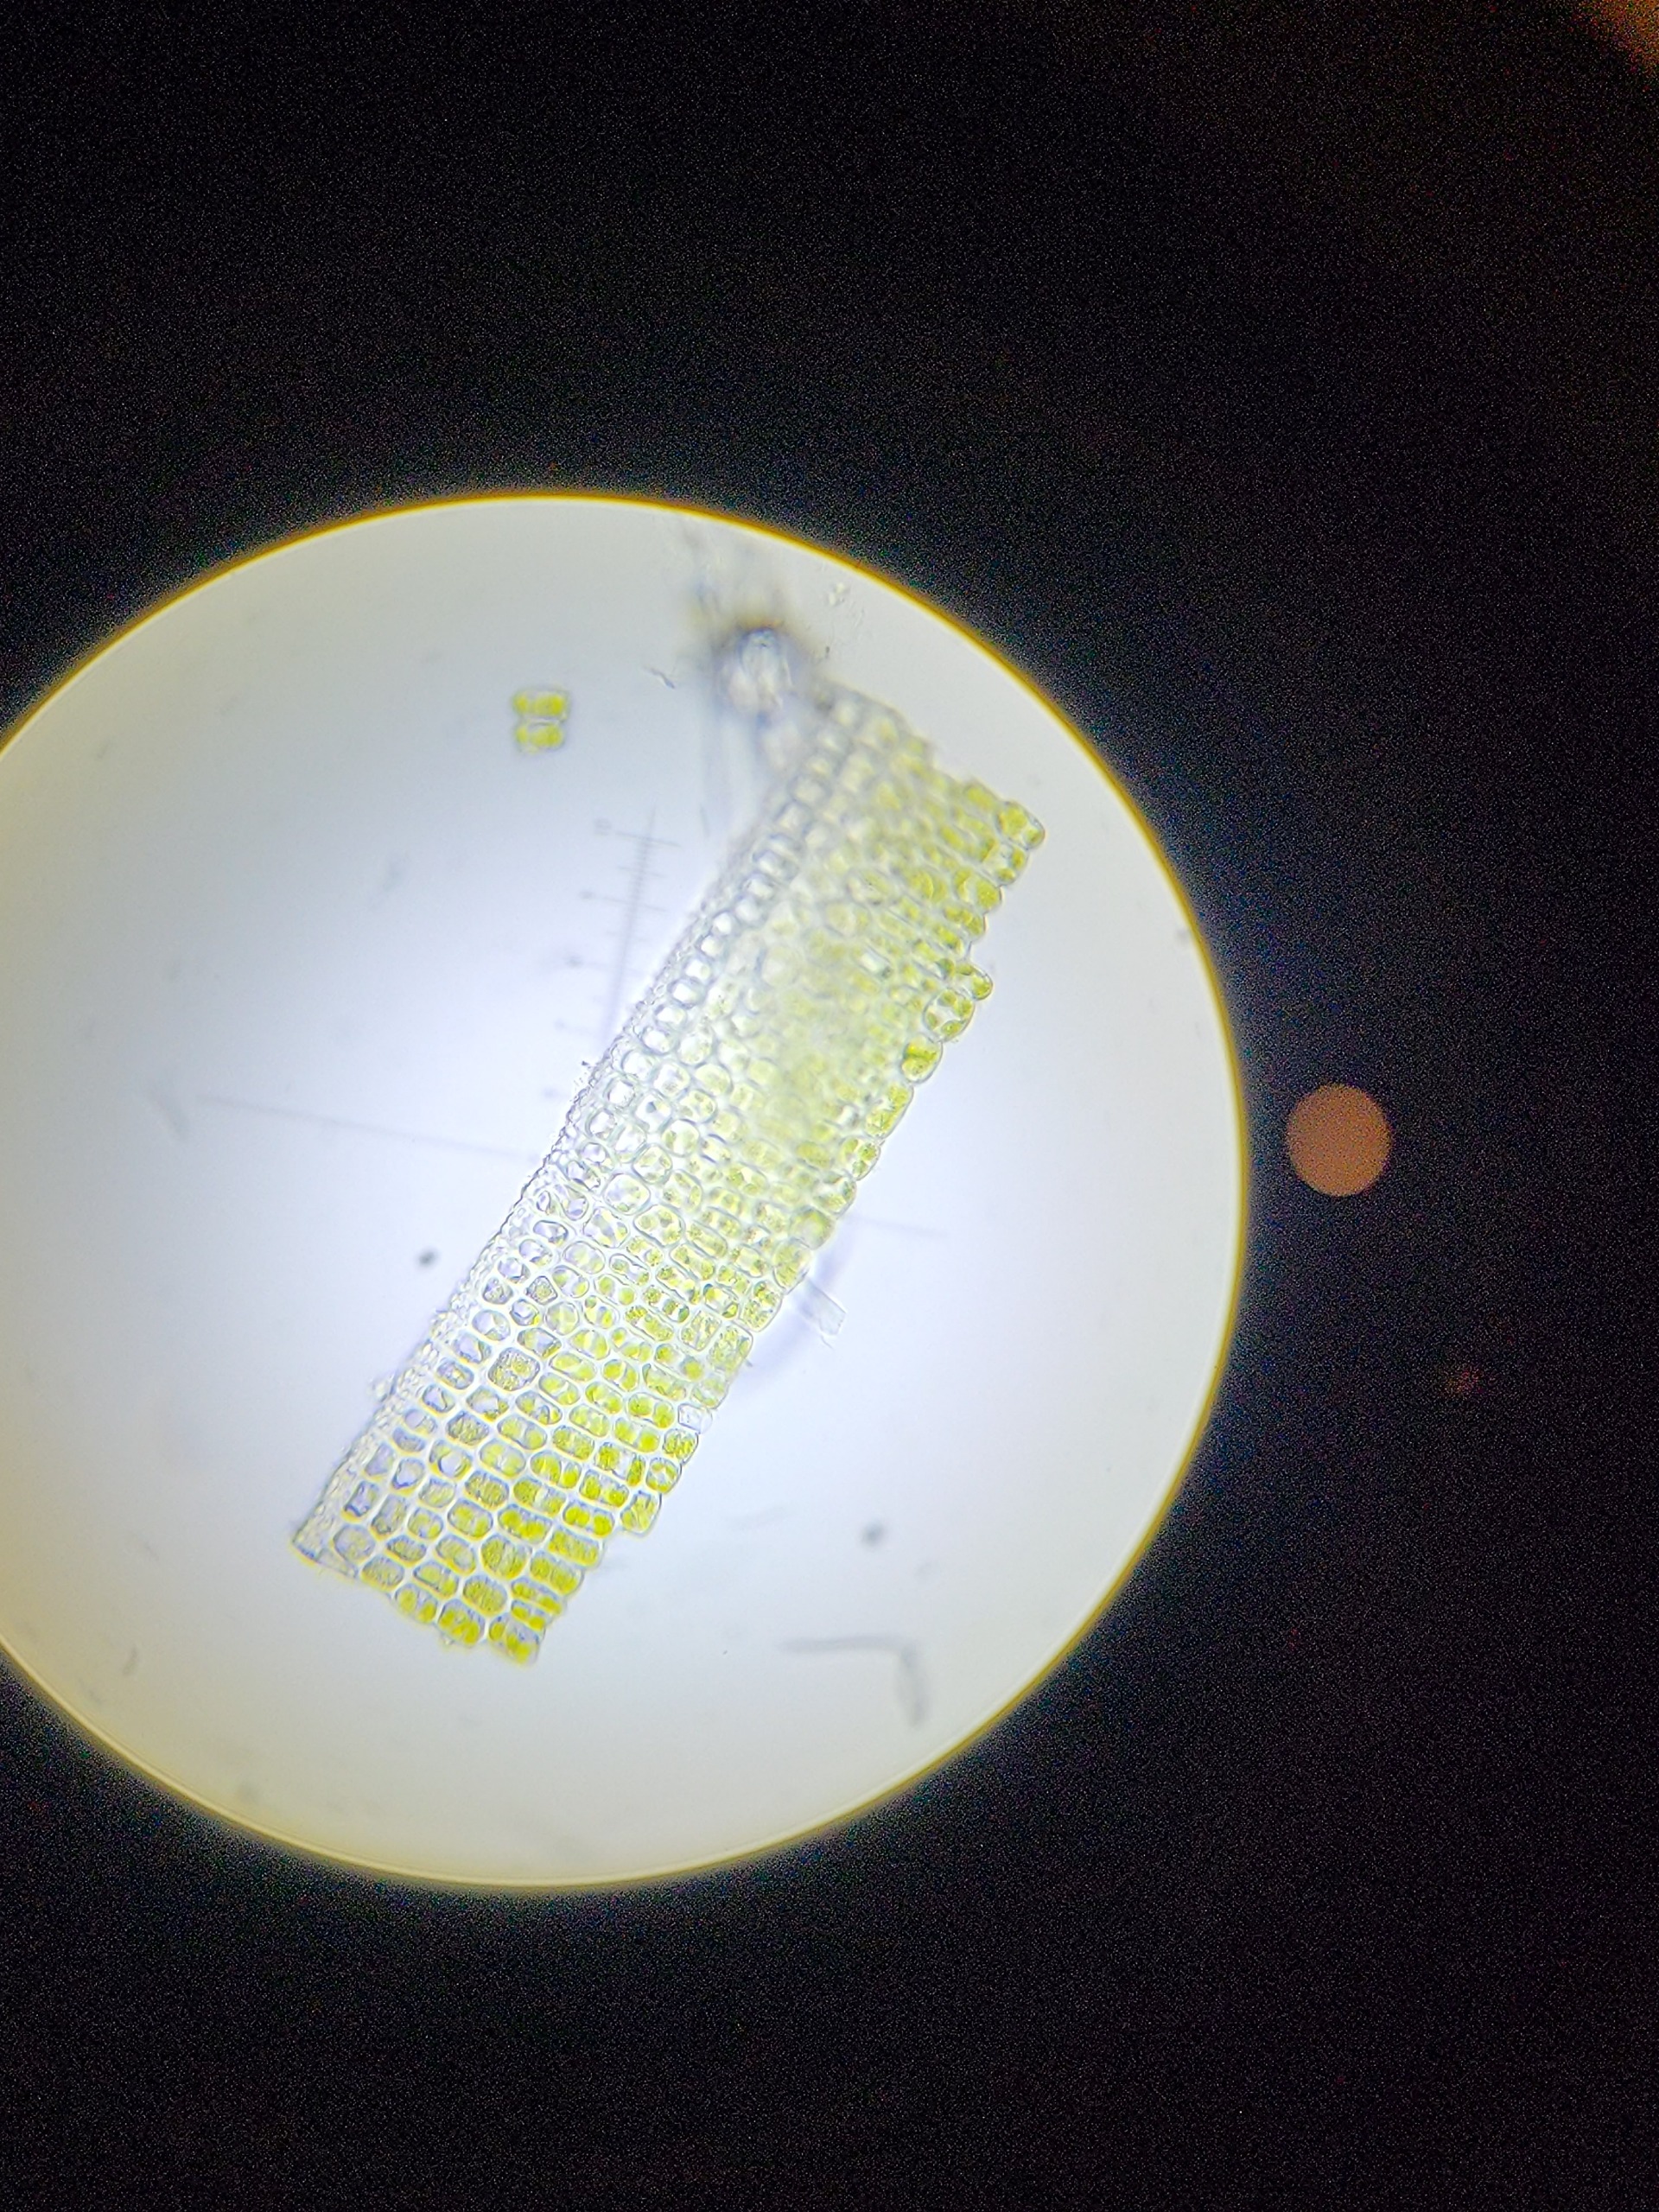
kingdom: Plantae
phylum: Bryophyta
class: Polytrichopsida
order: Polytrichales
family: Polytrichaceae
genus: Polytrichastrum
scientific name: Polytrichastrum alpinum
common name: Grenet jomfrukapsel
